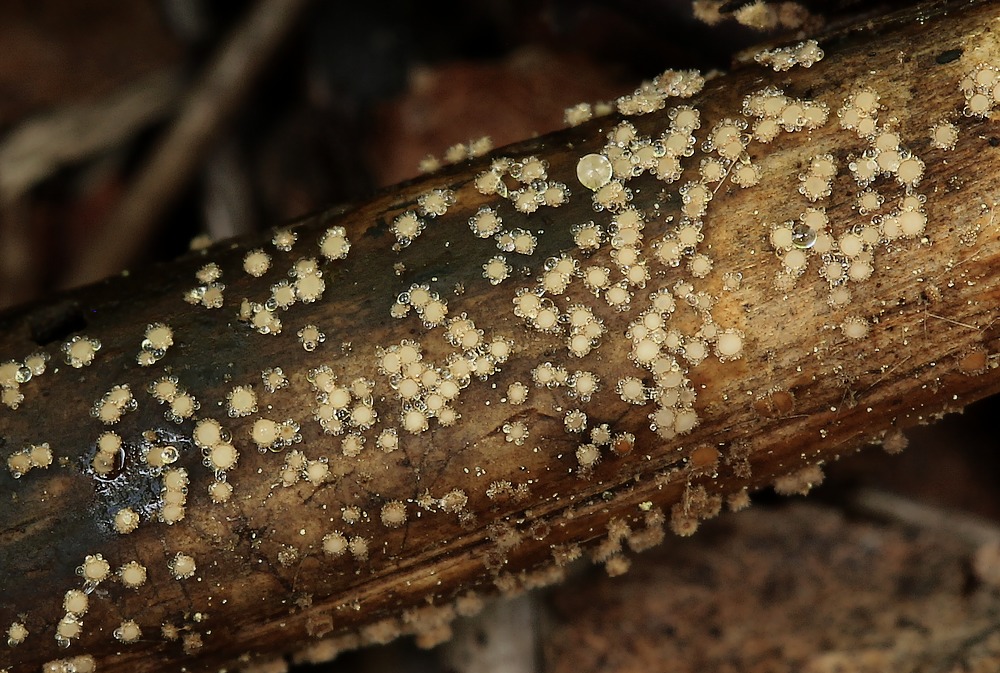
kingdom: Fungi
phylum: Ascomycota
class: Leotiomycetes
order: Helotiales
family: Lachnaceae
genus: Brunnipila
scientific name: Brunnipila palearum
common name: brunhåret frynseskive
